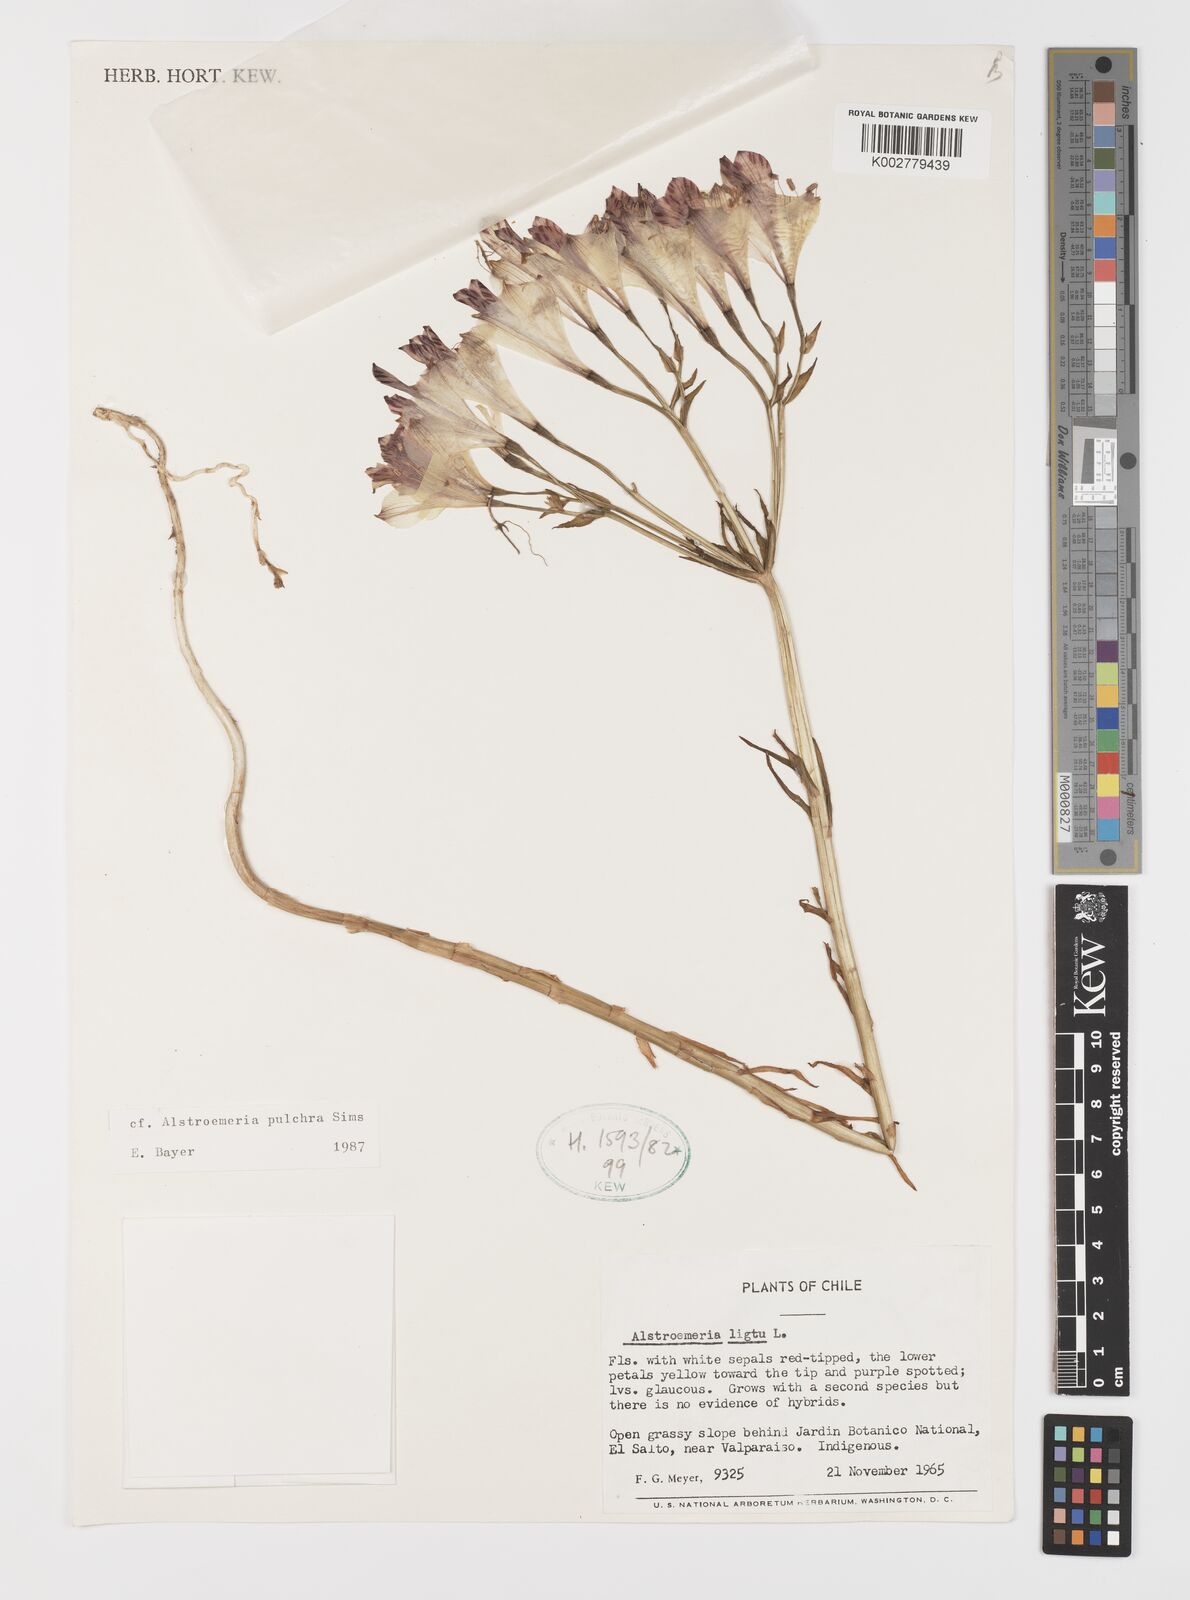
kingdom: Plantae
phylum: Tracheophyta
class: Liliopsida
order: Liliales
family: Alstroemeriaceae
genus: Alstroemeria
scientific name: Alstroemeria pulchra
